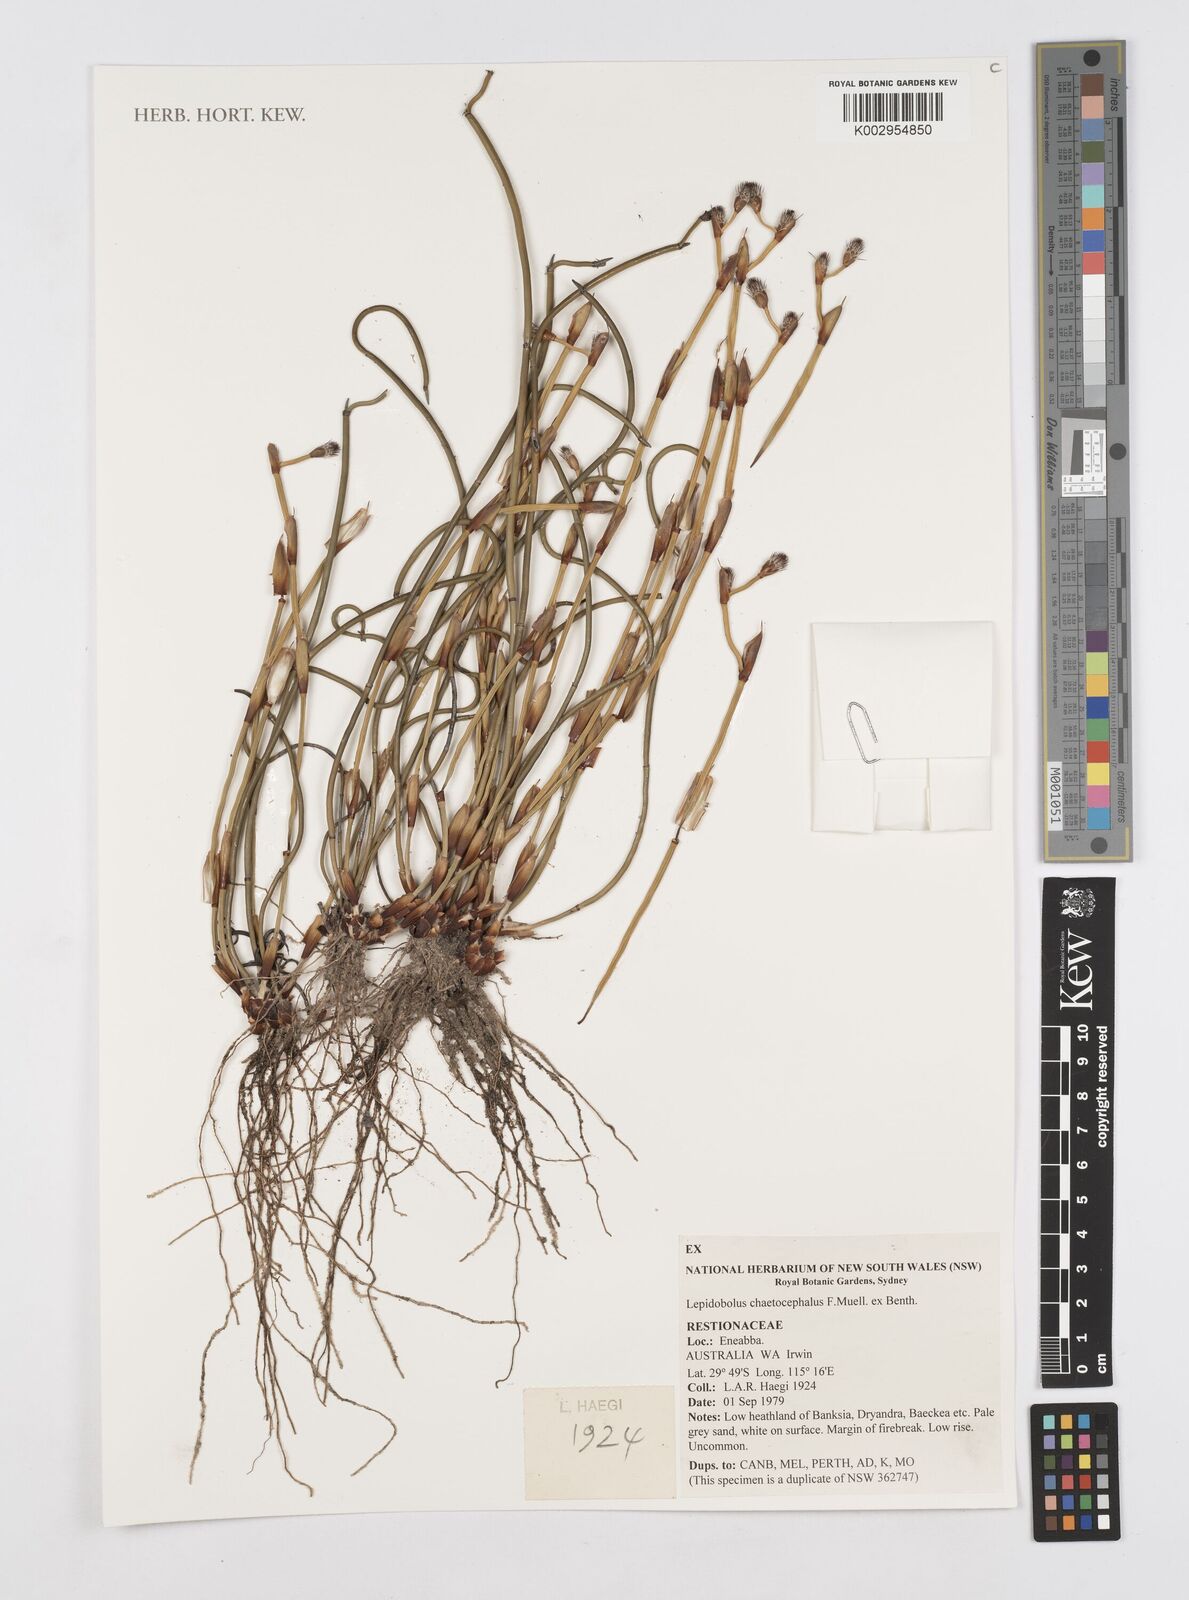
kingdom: Plantae
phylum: Tracheophyta
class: Liliopsida
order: Poales
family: Restionaceae
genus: Lepidobolus
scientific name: Lepidobolus chaetocephalus
